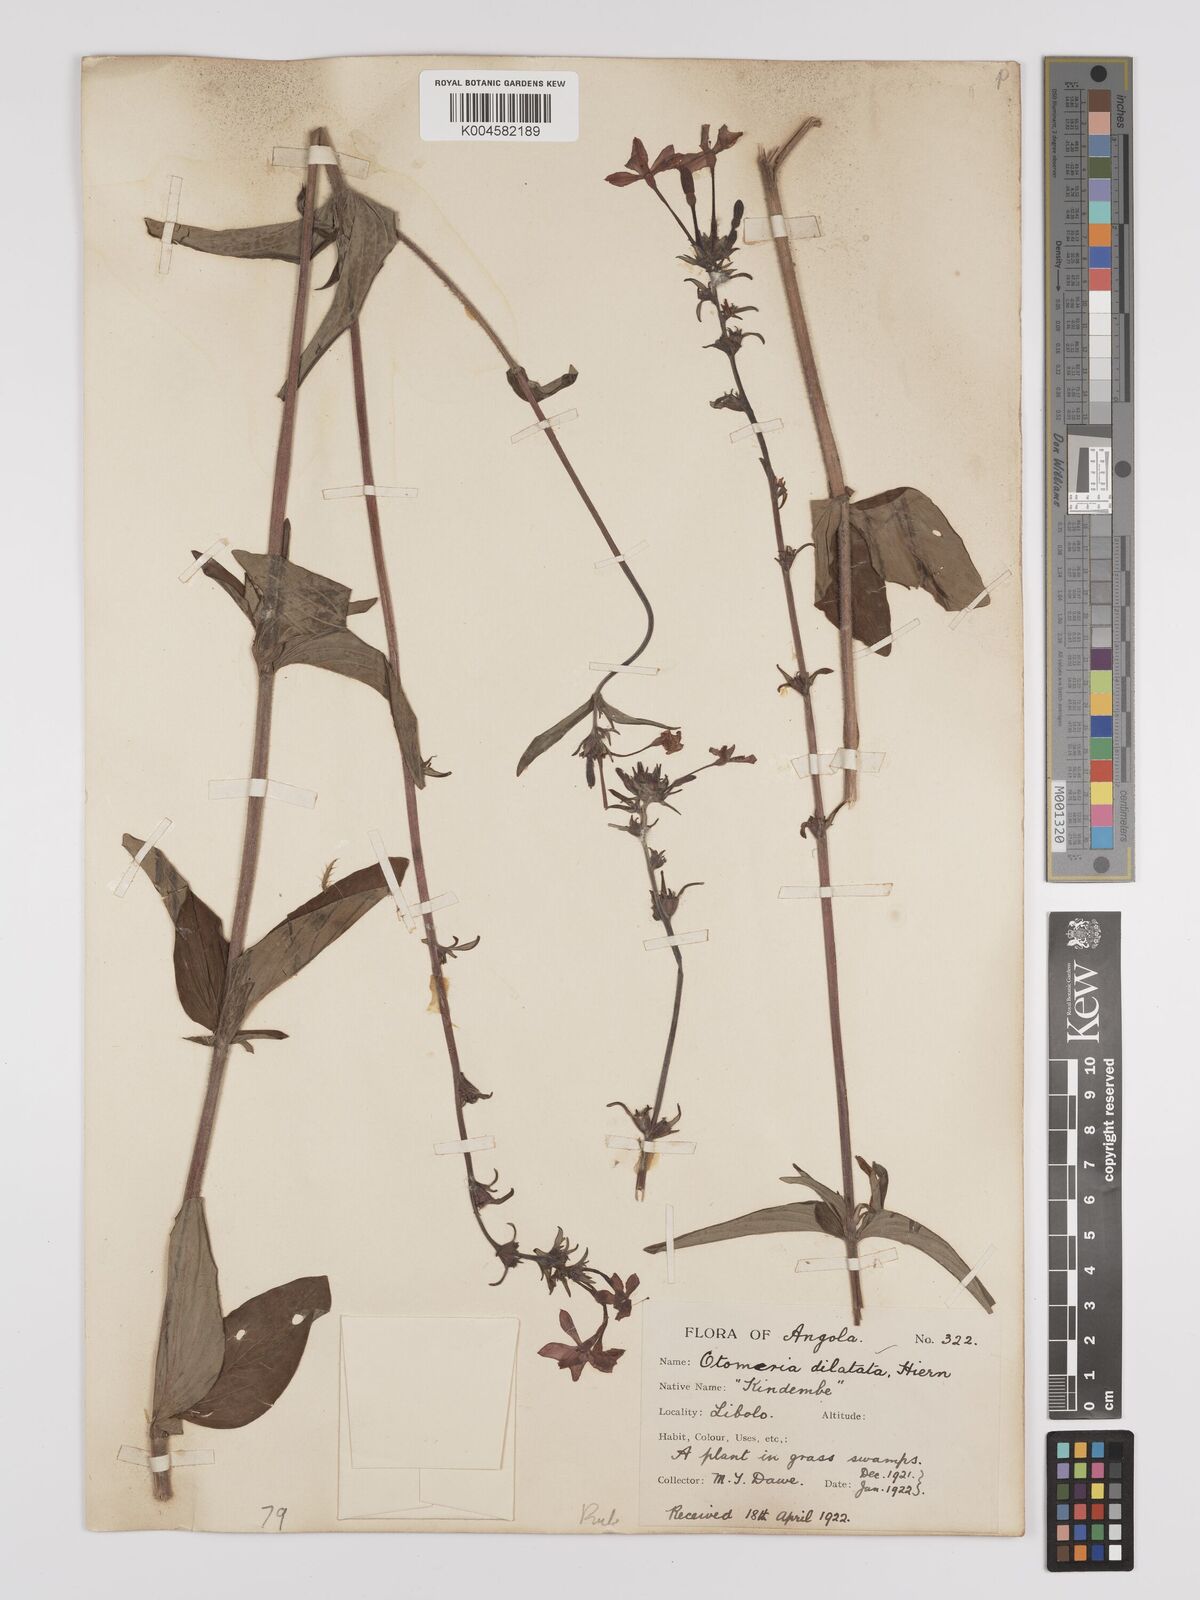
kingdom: Plantae
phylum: Tracheophyta
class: Magnoliopsida
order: Gentianales
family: Rubiaceae
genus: Otomeria
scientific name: Otomeria elatior
